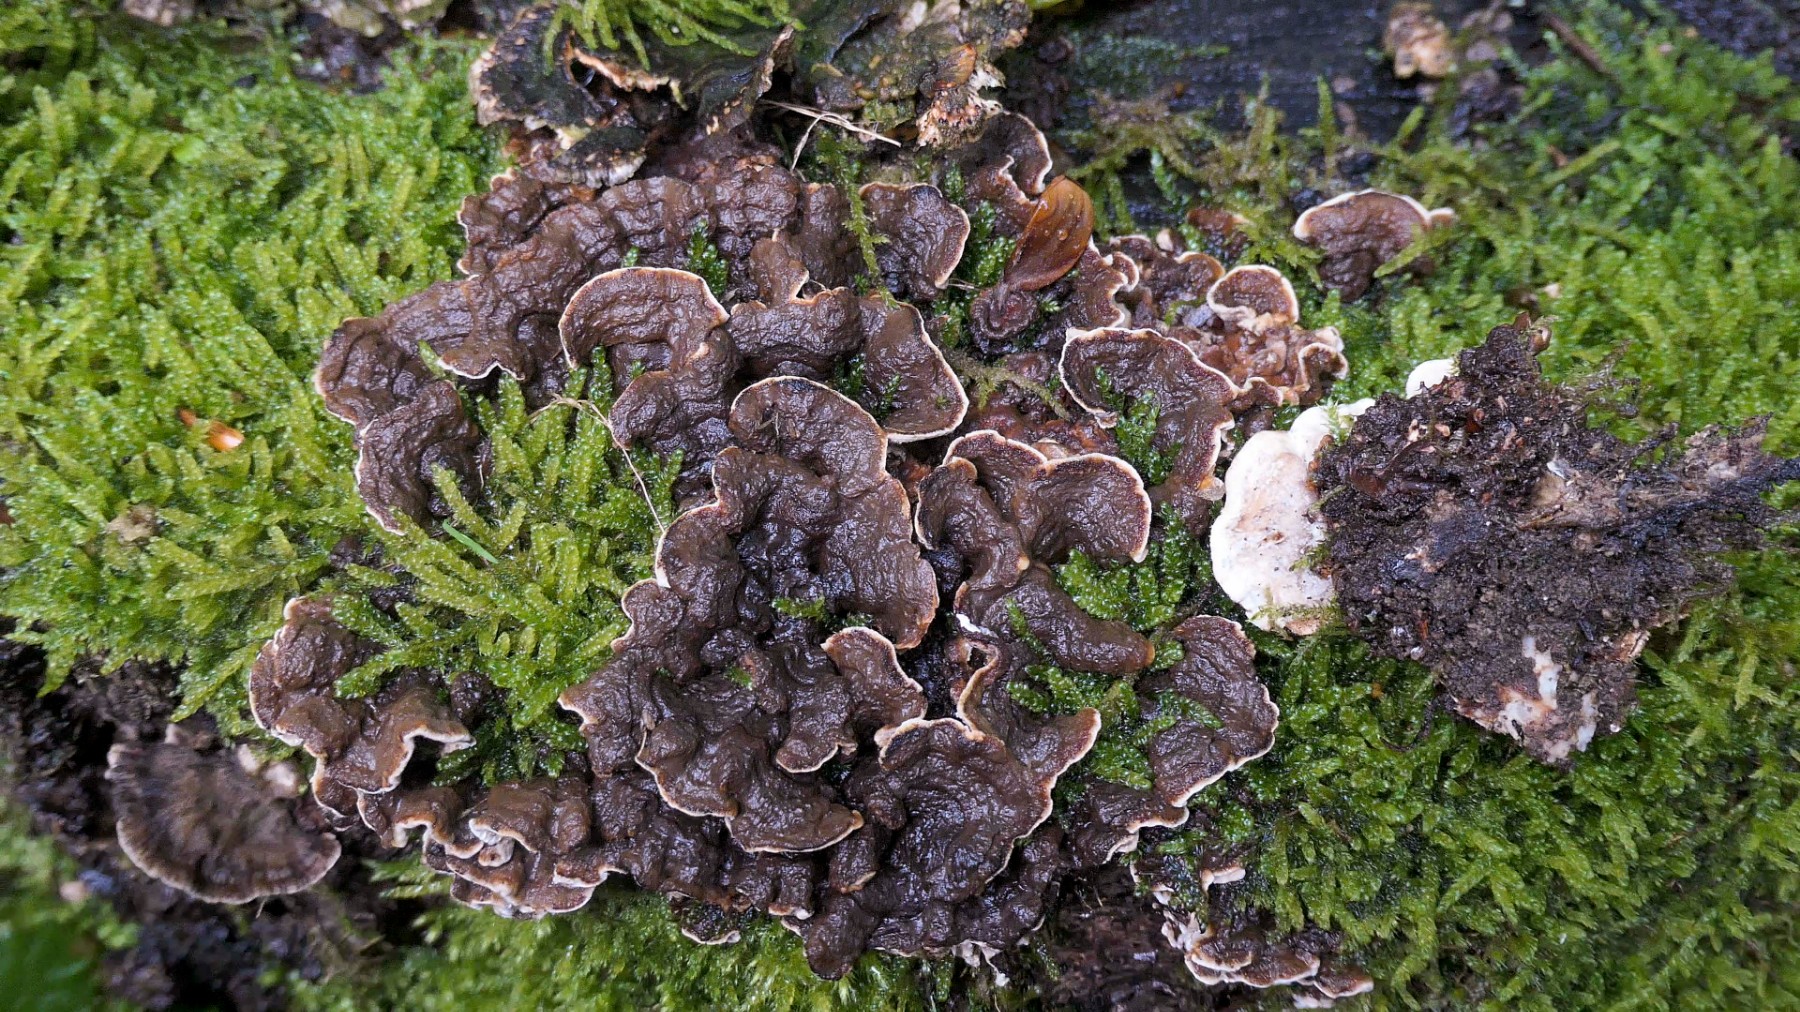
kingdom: Fungi
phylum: Basidiomycota
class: Agaricomycetes
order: Russulales
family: Hericiaceae
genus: Laxitextum
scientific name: Laxitextum bicolor
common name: tvefarvet filtskind
